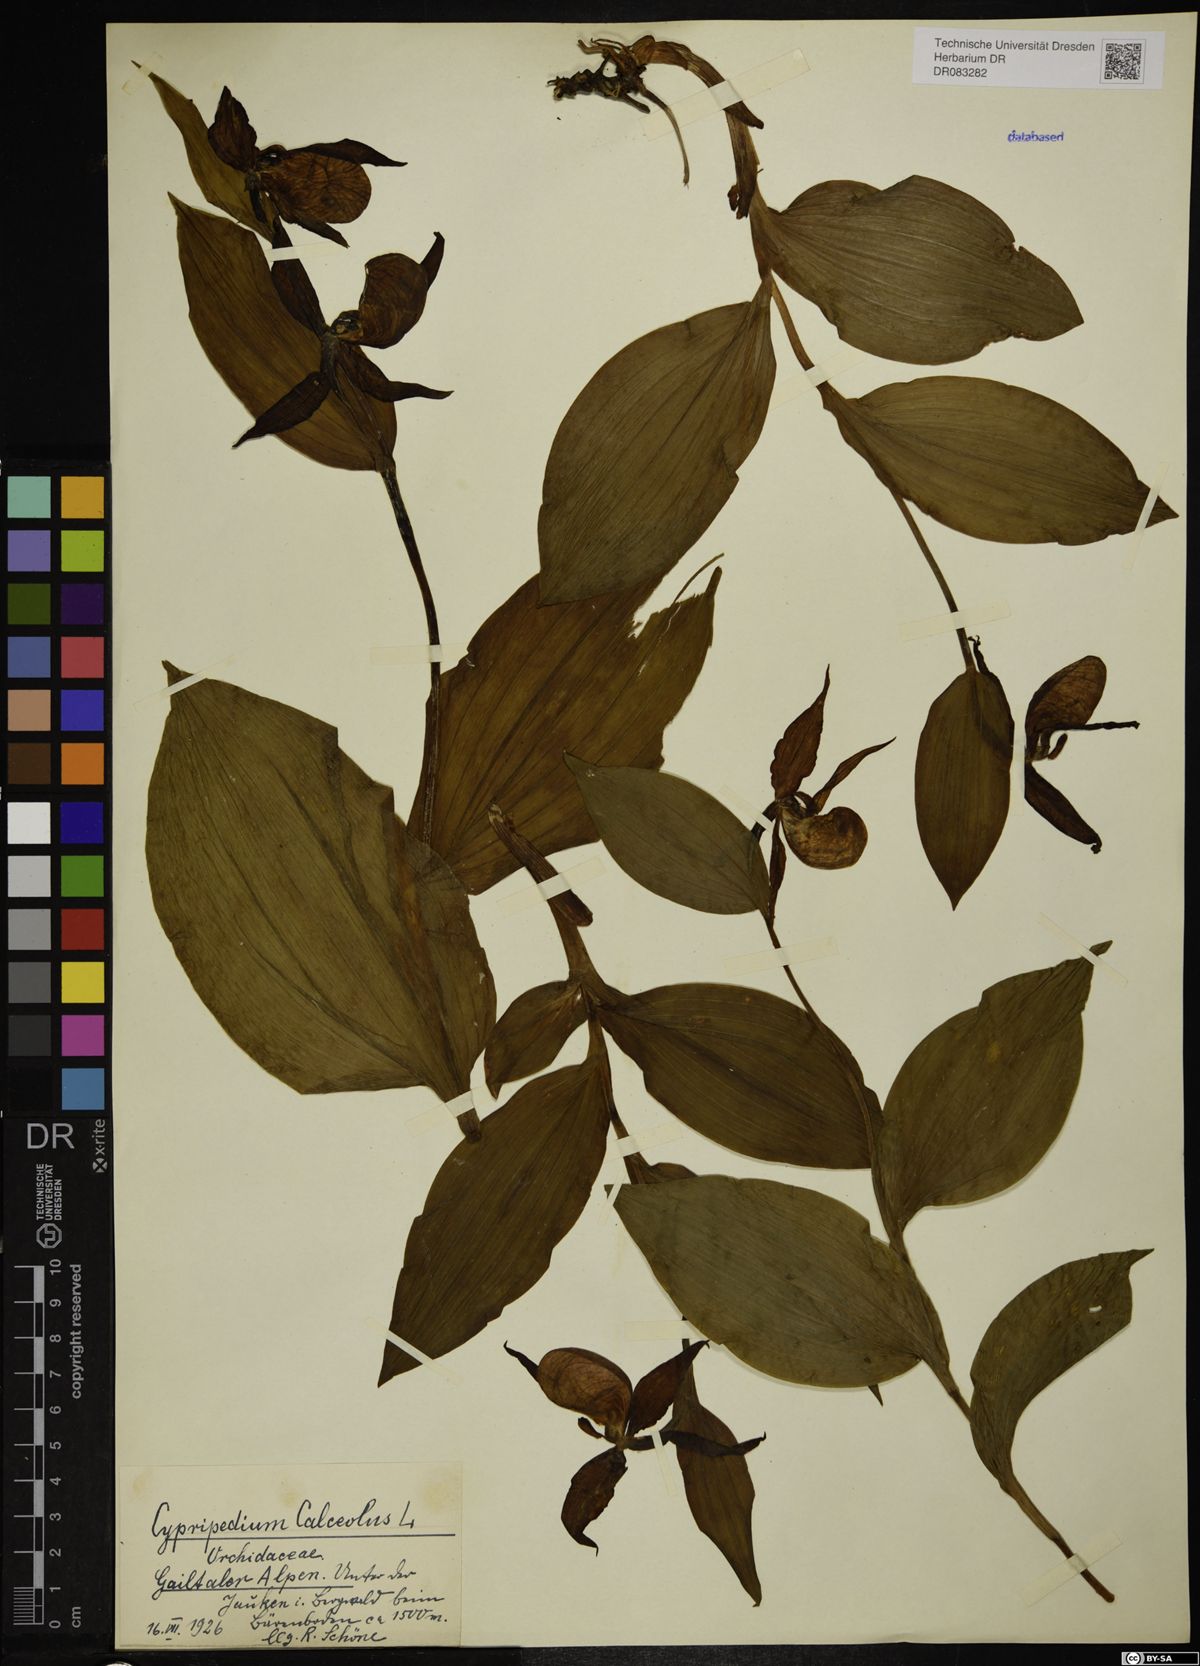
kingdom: Plantae
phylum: Tracheophyta
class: Liliopsida
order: Asparagales
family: Orchidaceae
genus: Cypripedium
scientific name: Cypripedium calceolus
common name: Lady's-slipper
